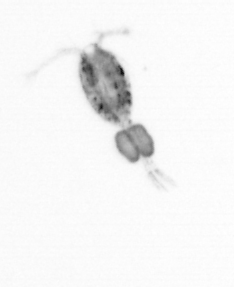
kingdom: Animalia
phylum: Arthropoda
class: Copepoda
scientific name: Copepoda
